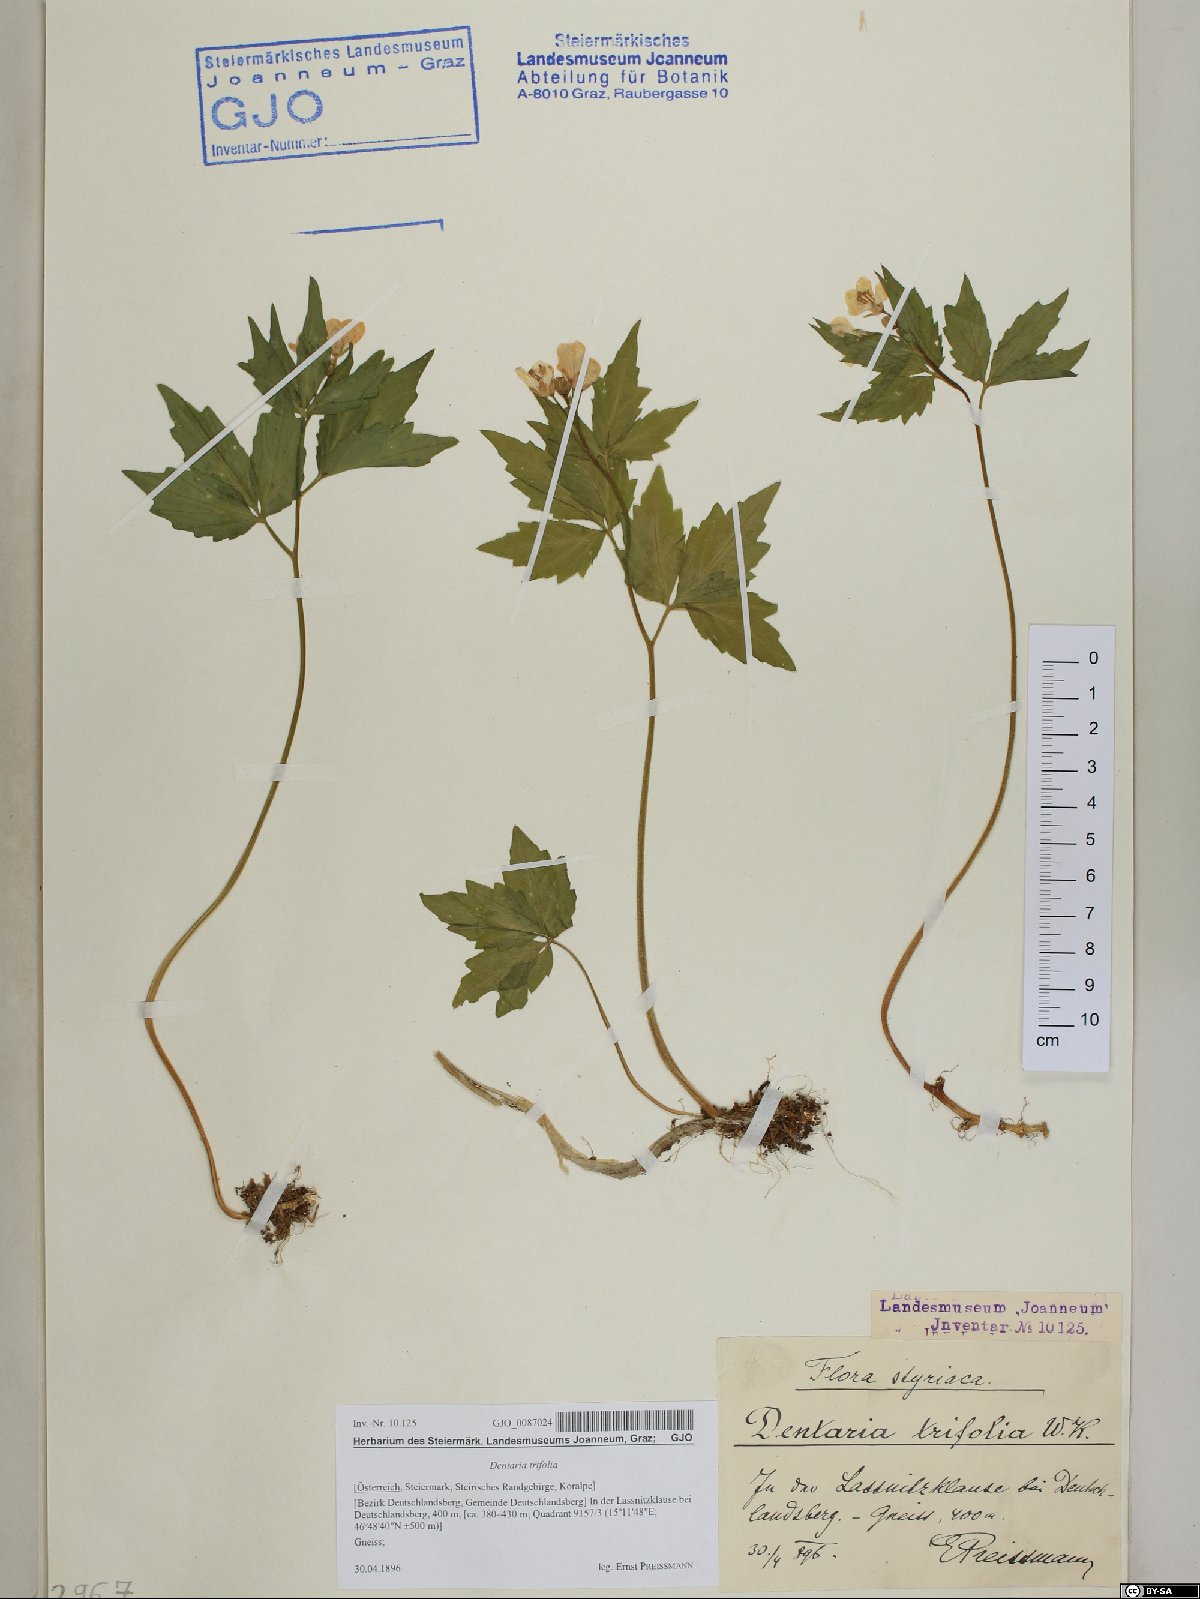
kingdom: Plantae
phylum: Tracheophyta
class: Magnoliopsida
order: Brassicales
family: Brassicaceae
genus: Cardamine
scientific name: Cardamine waldsteinii
